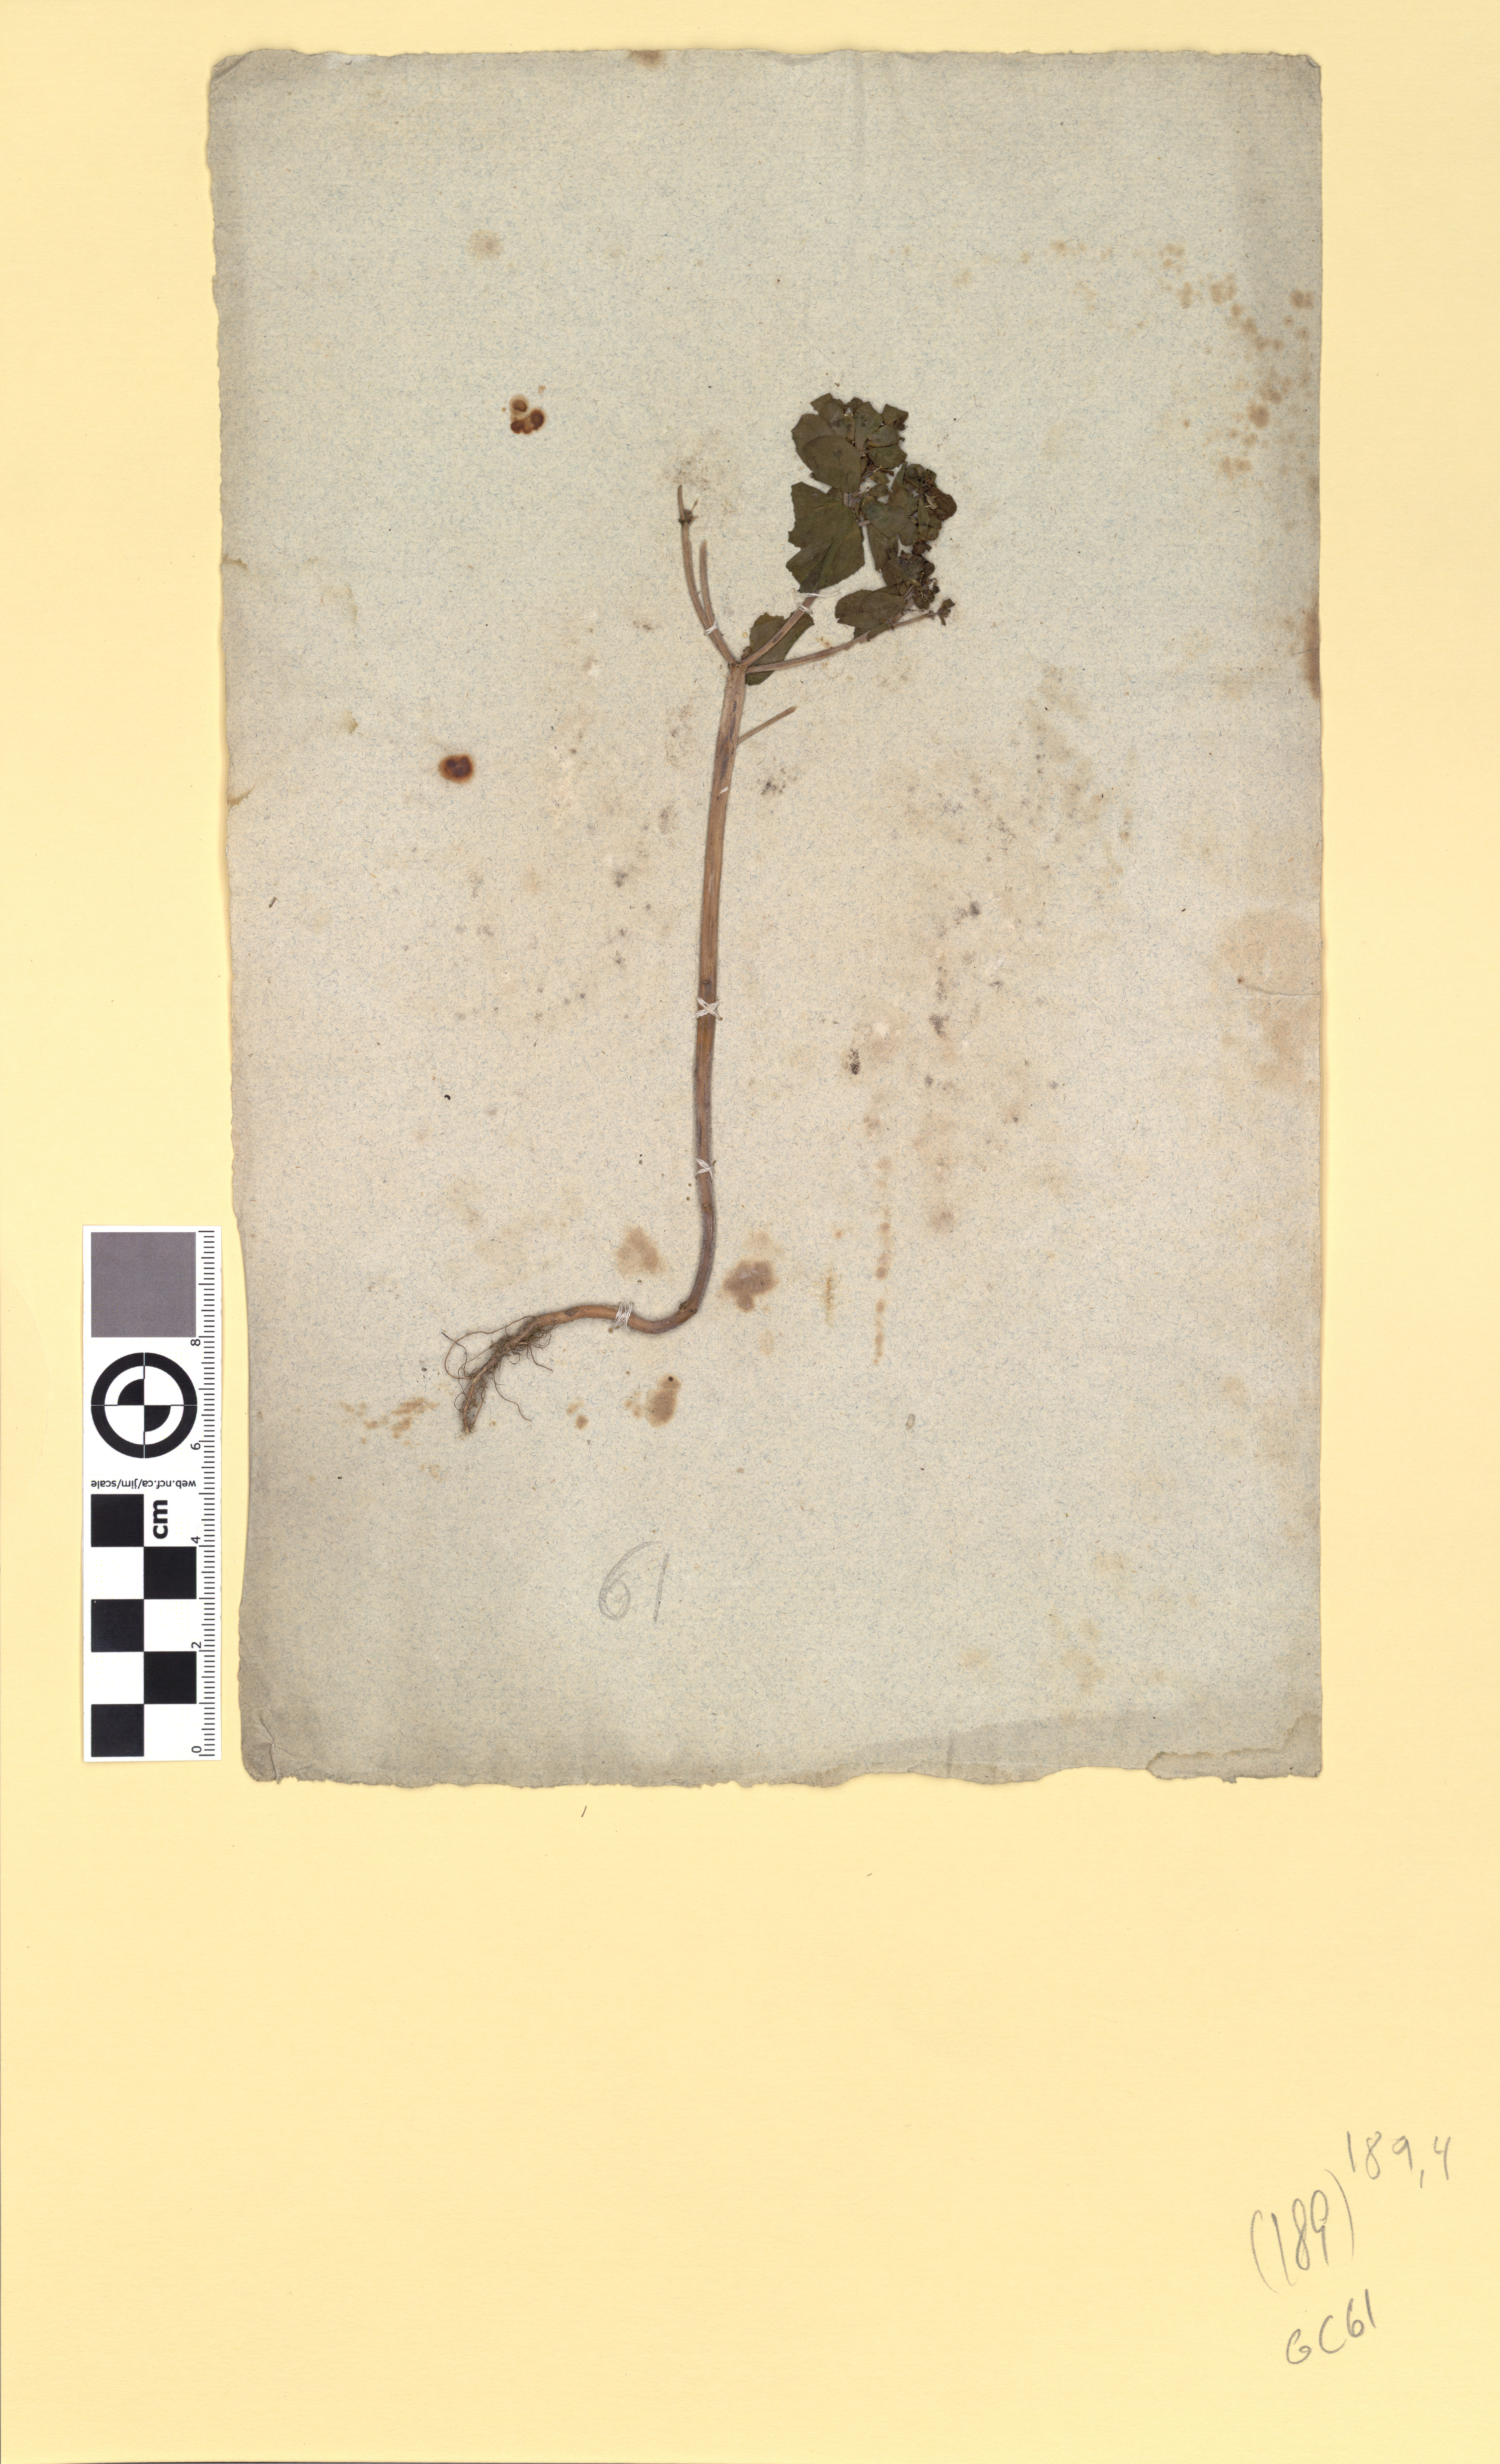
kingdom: Plantae
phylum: Tracheophyta
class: Magnoliopsida
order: Malpighiales
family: Euphorbiaceae
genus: Euphorbia
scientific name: Euphorbia helioscopia
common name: Sun spurge
